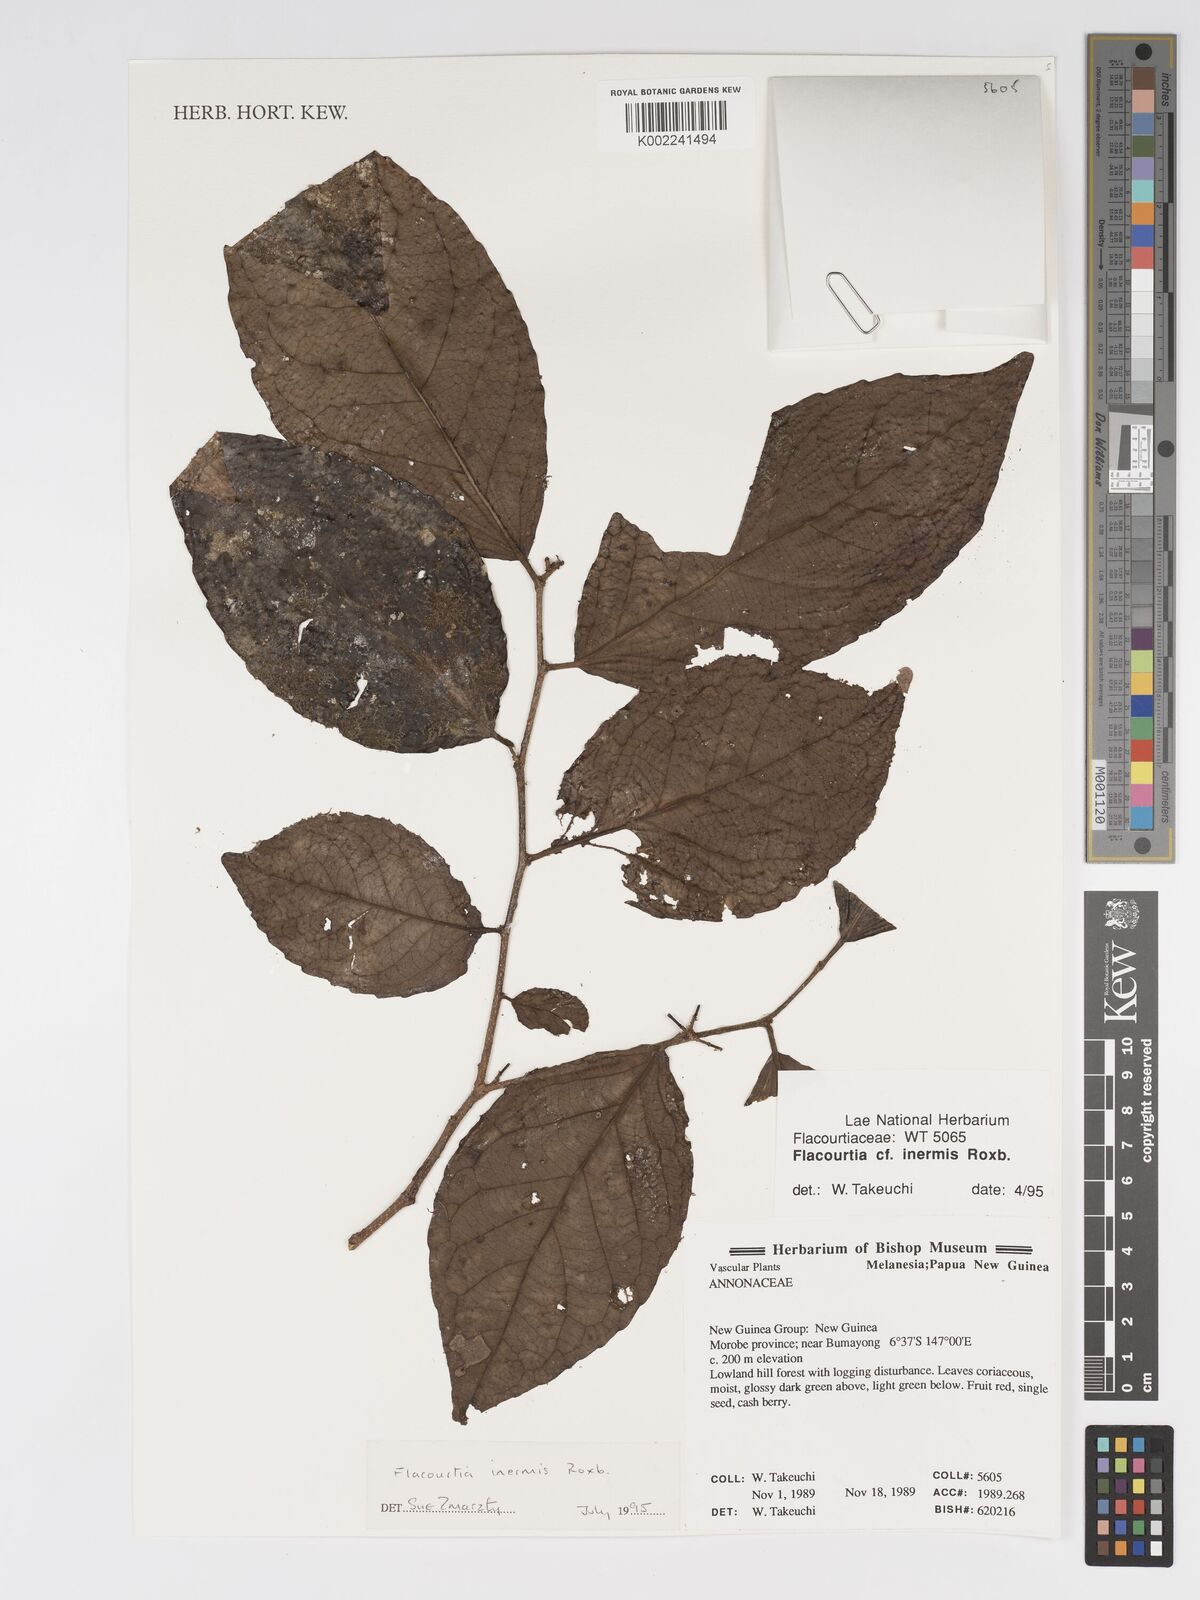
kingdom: Plantae
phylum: Tracheophyta
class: Magnoliopsida
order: Malpighiales
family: Salicaceae
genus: Flacourtia
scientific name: Flacourtia inermis
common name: Plum-of-martinique
